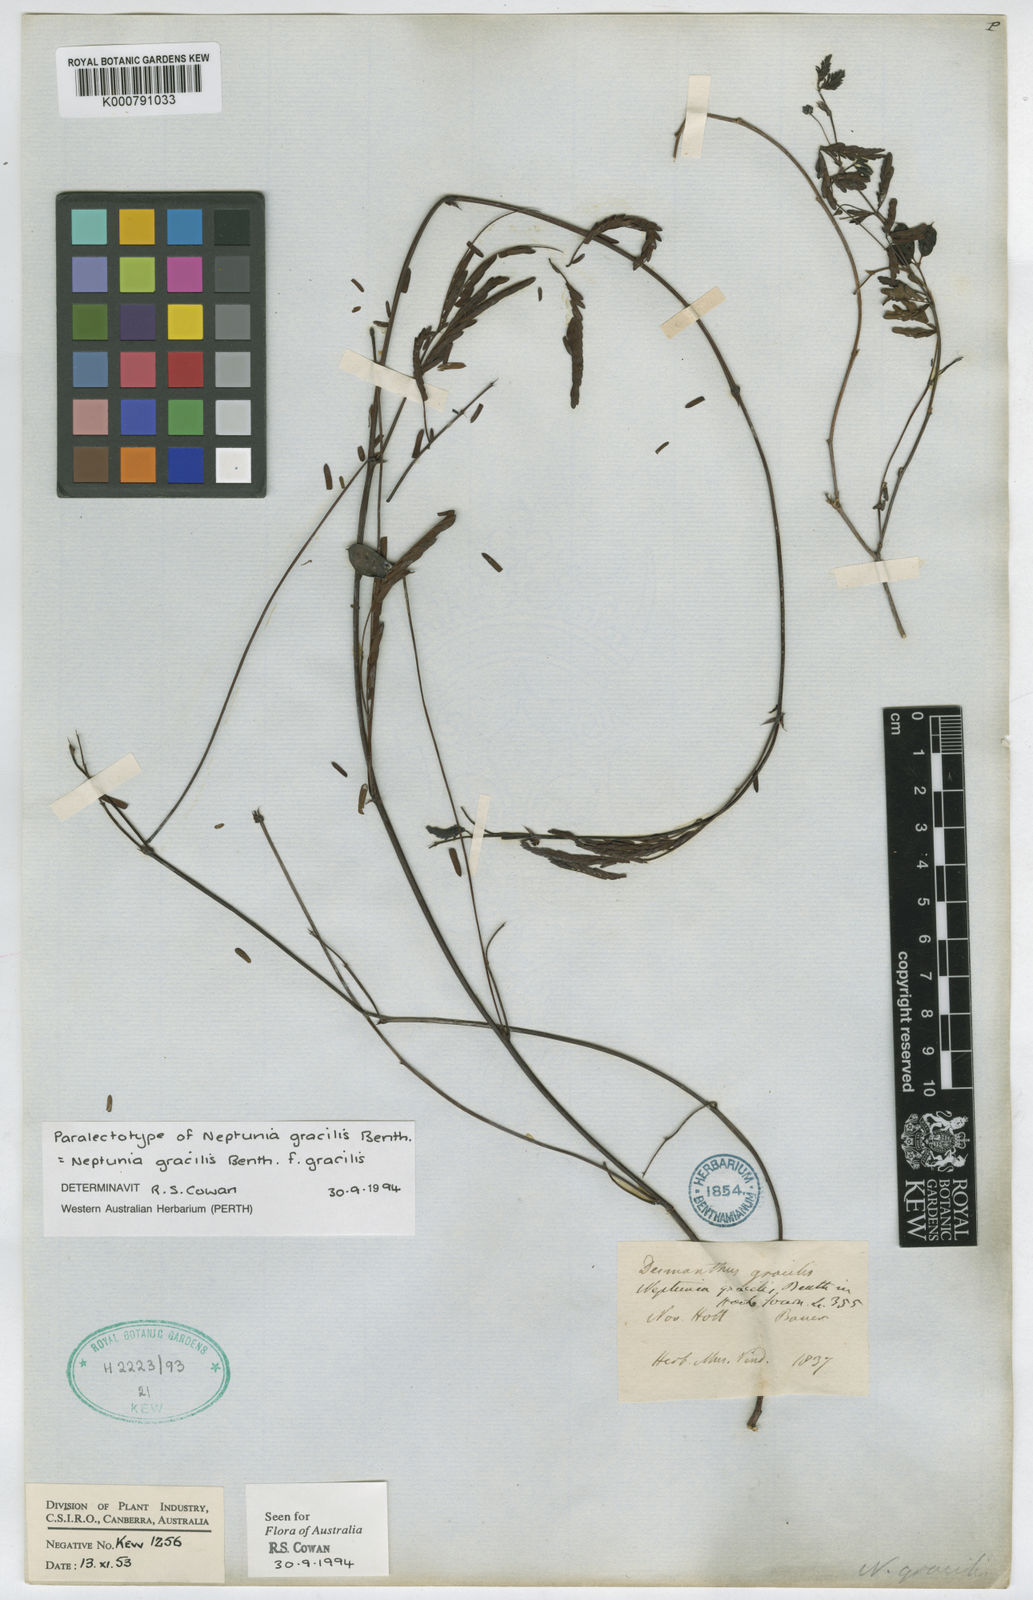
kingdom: Plantae
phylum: Tracheophyta
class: Magnoliopsida
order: Fabales
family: Fabaceae
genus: Neptunia
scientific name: Neptunia gracilis
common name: Sensitive-plant
